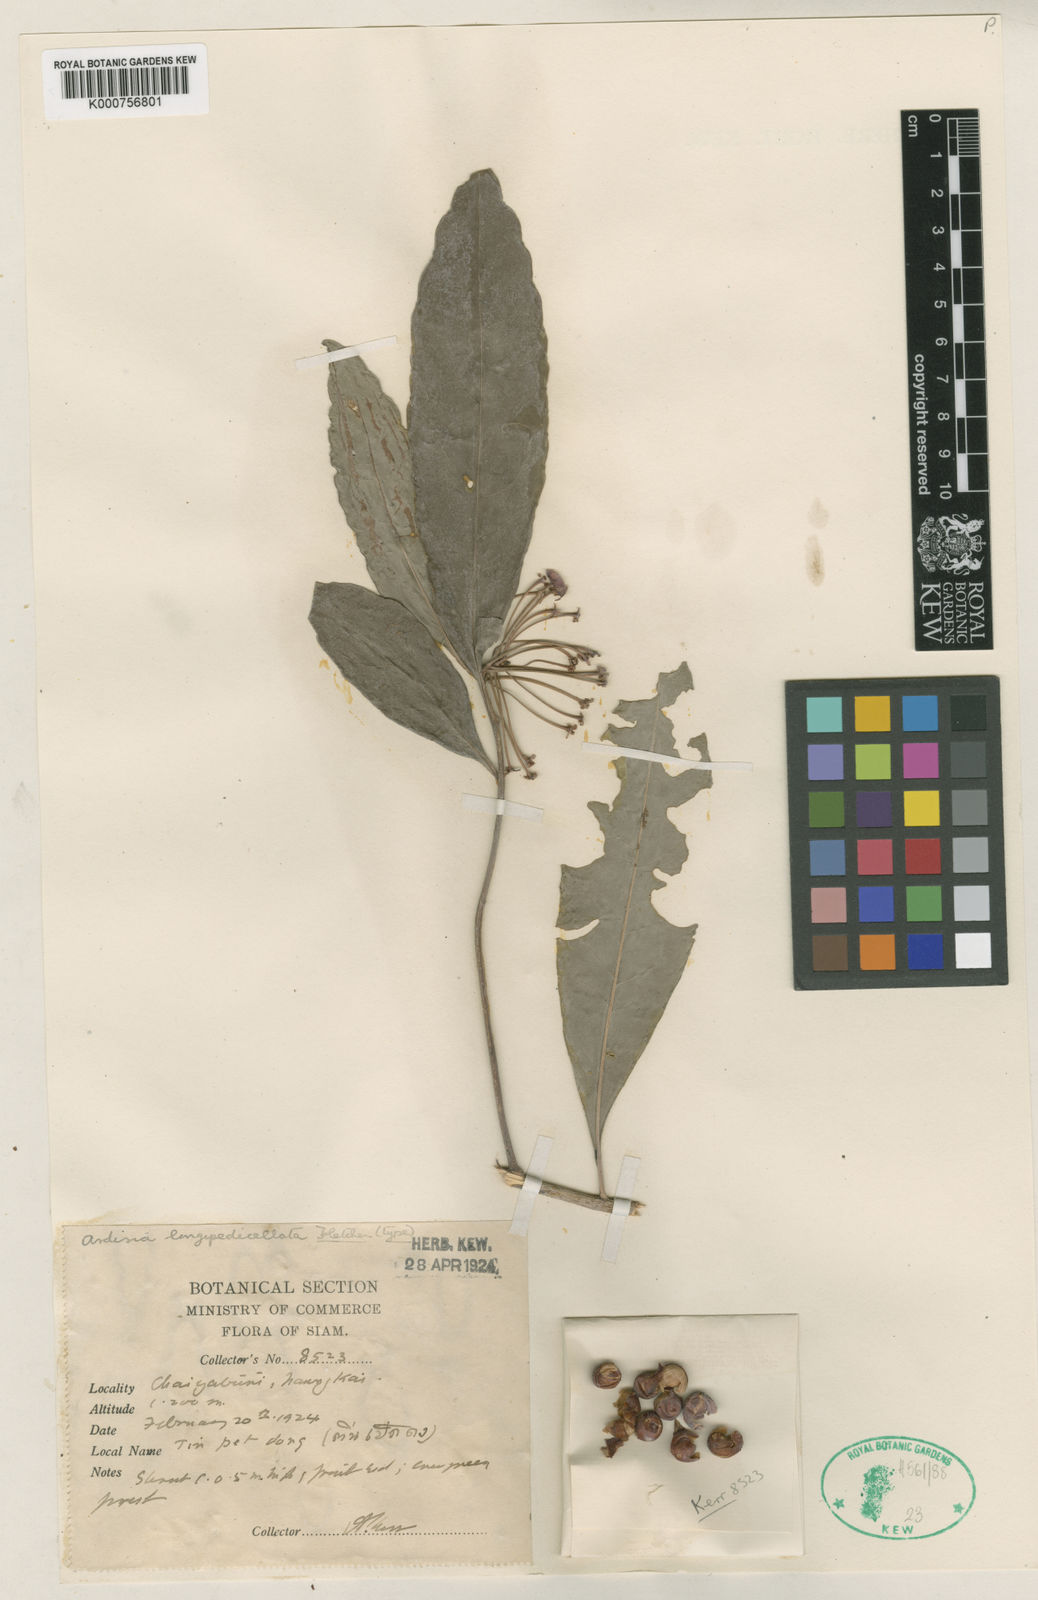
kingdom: Plantae
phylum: Tracheophyta
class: Magnoliopsida
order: Ericales
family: Primulaceae
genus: Ardisia
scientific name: Ardisia longipedicellata
